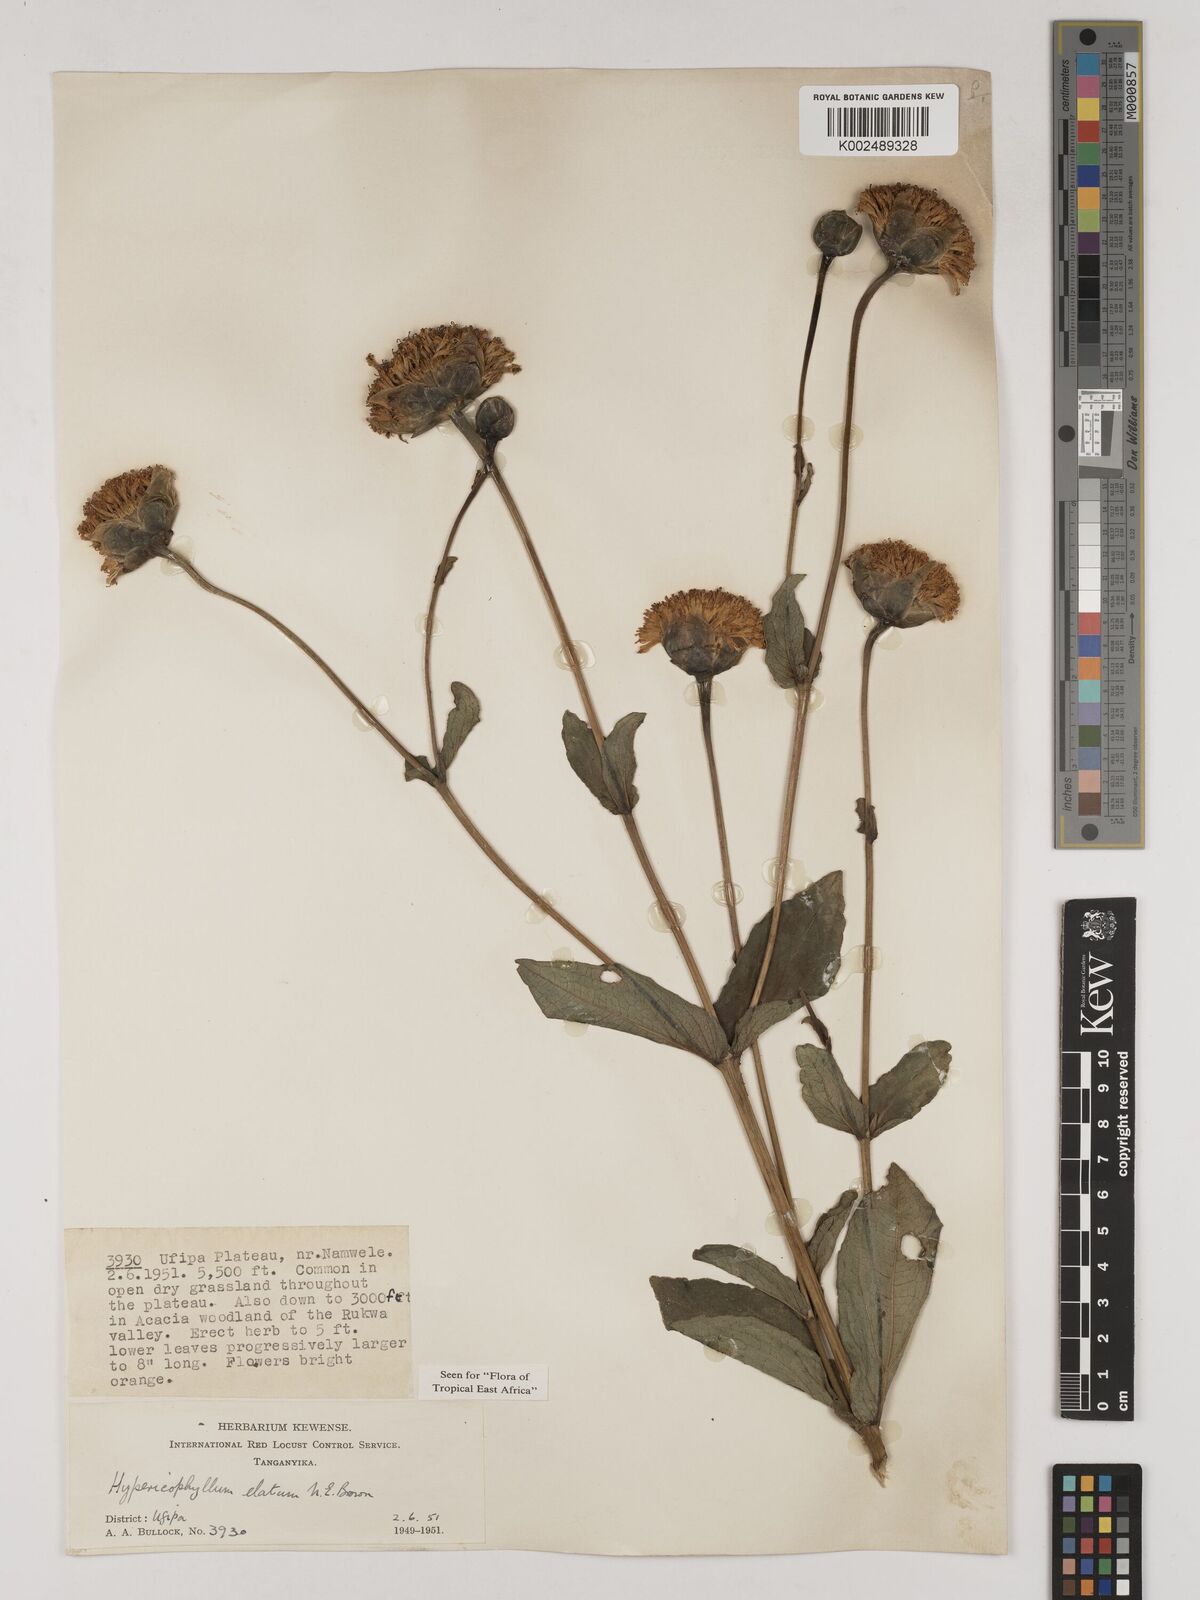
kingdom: Plantae
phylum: Tracheophyta
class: Magnoliopsida
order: Asterales
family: Asteraceae
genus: Hypericophyllum
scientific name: Hypericophyllum elatum
